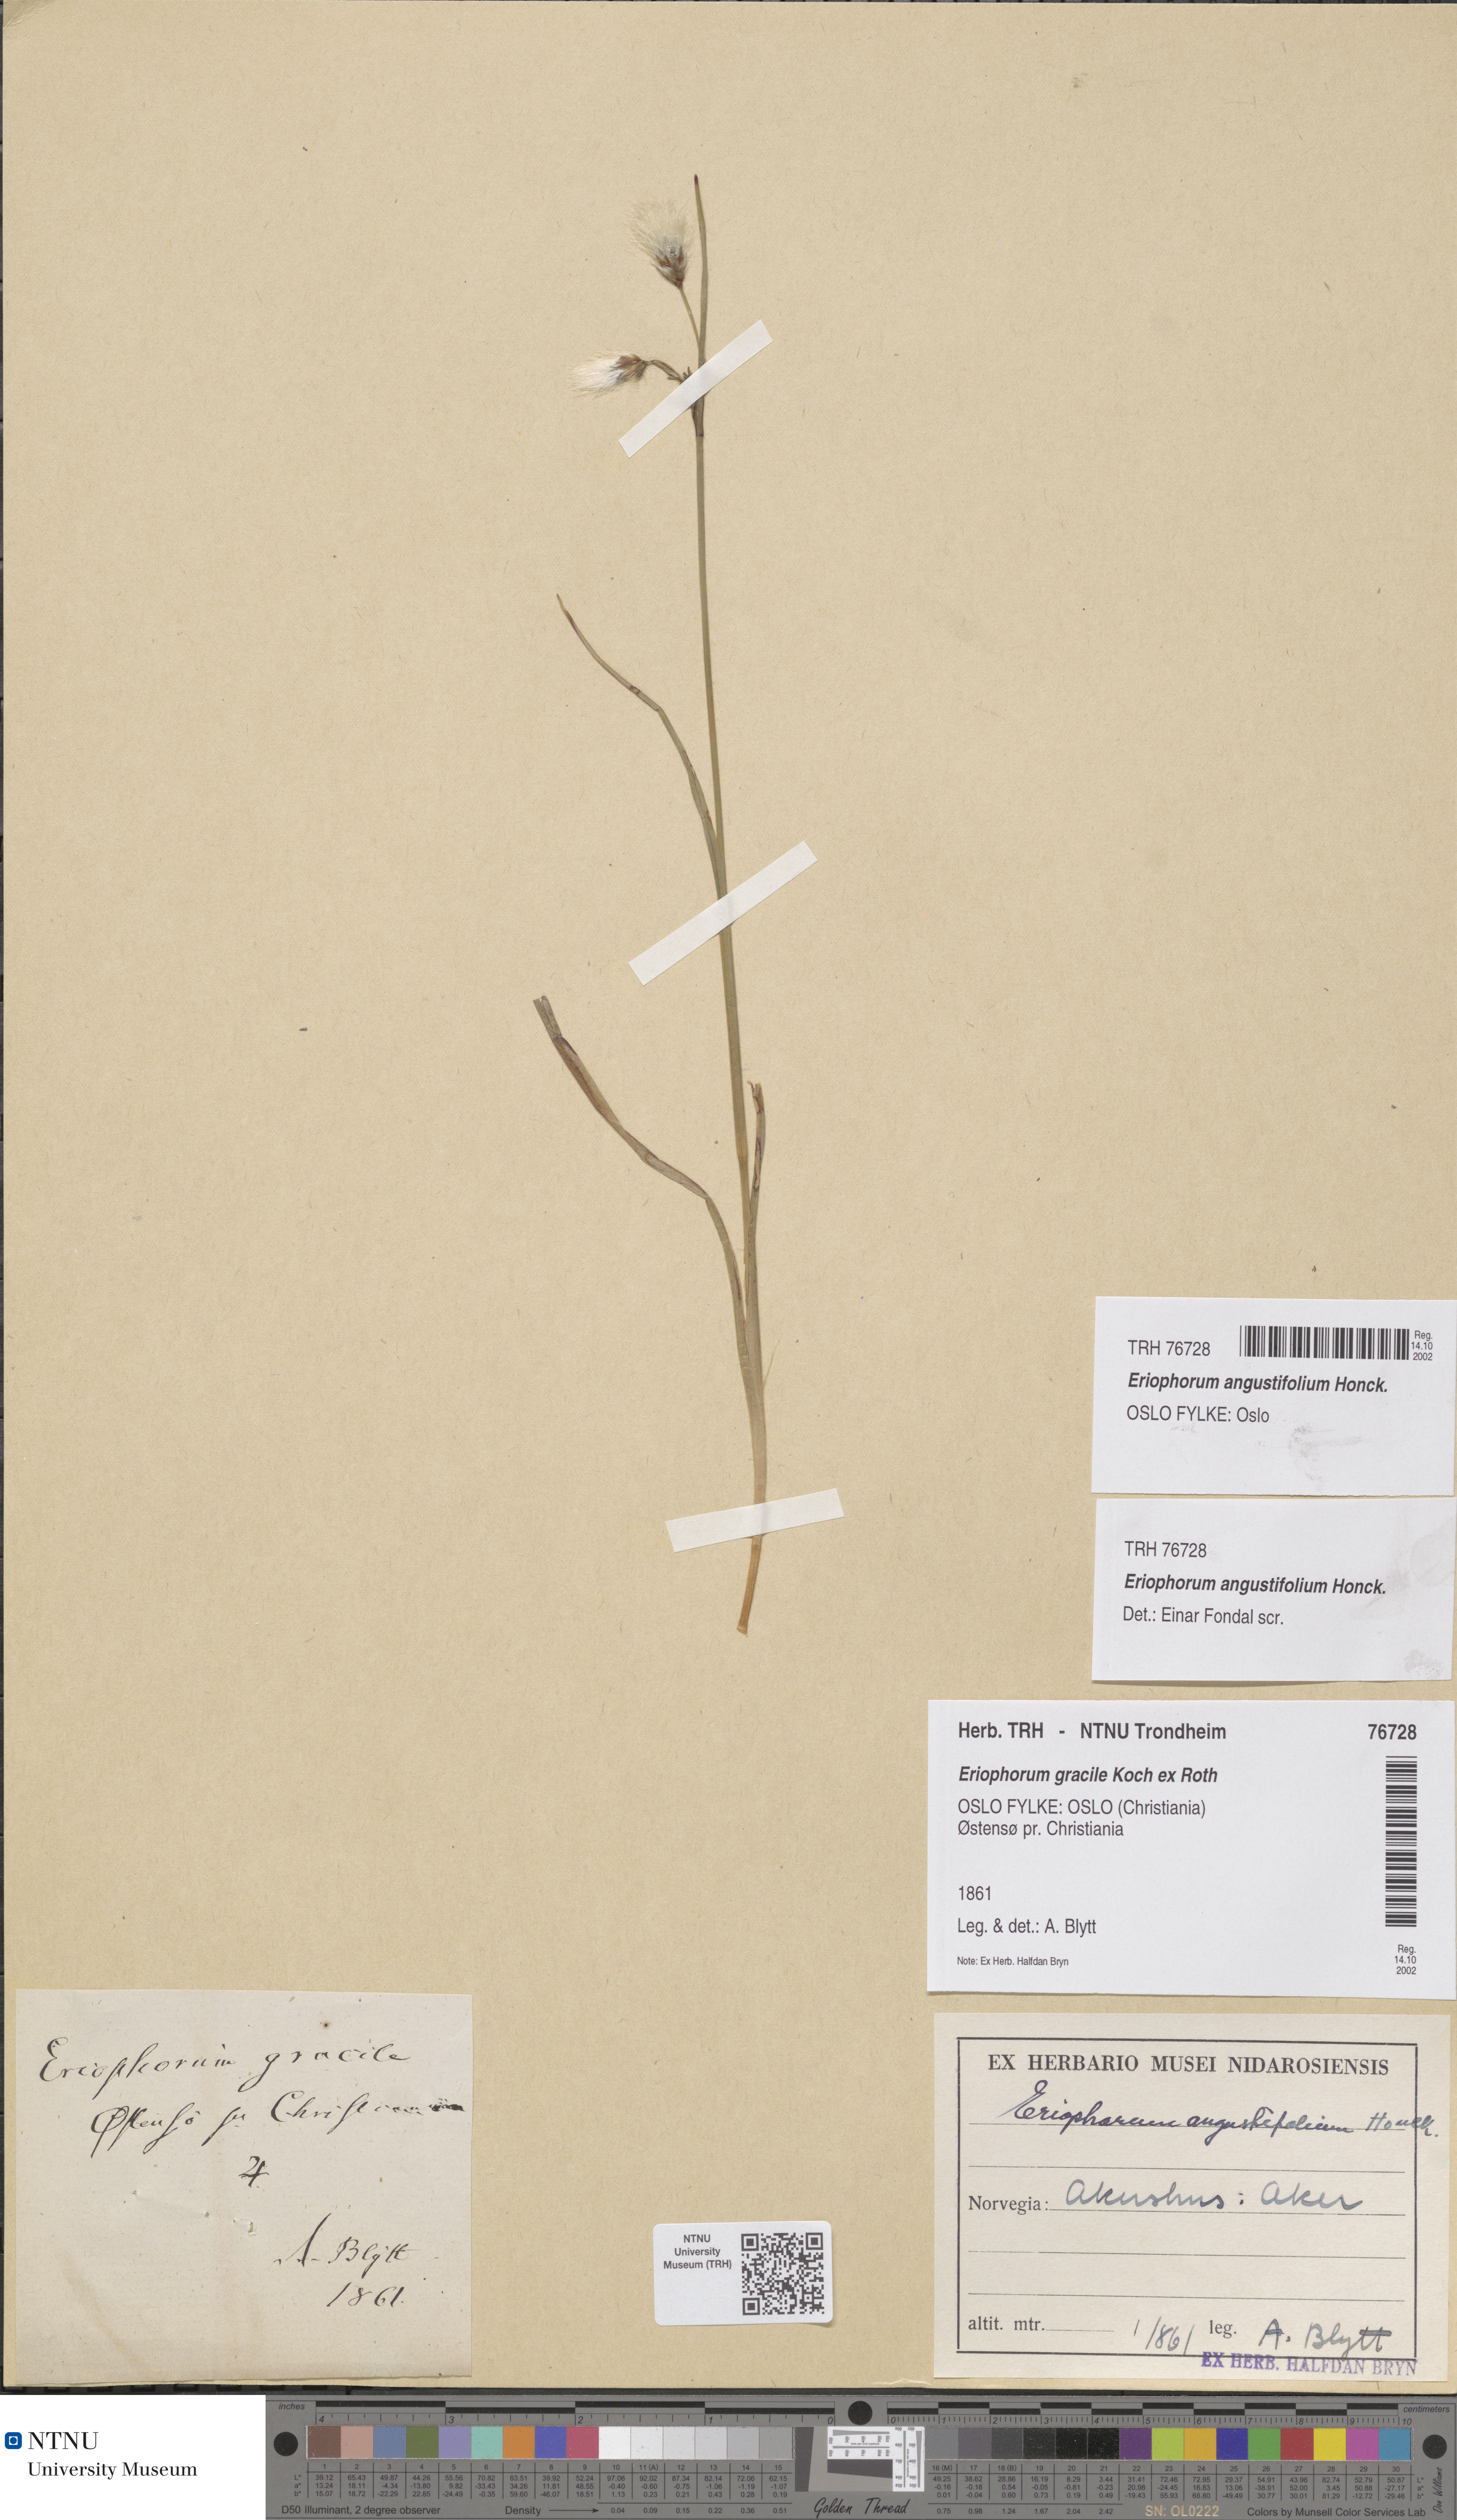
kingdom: Plantae
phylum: Tracheophyta
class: Liliopsida
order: Poales
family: Cyperaceae
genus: Eriophorum
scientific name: Eriophorum angustifolium
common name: Common cottongrass
